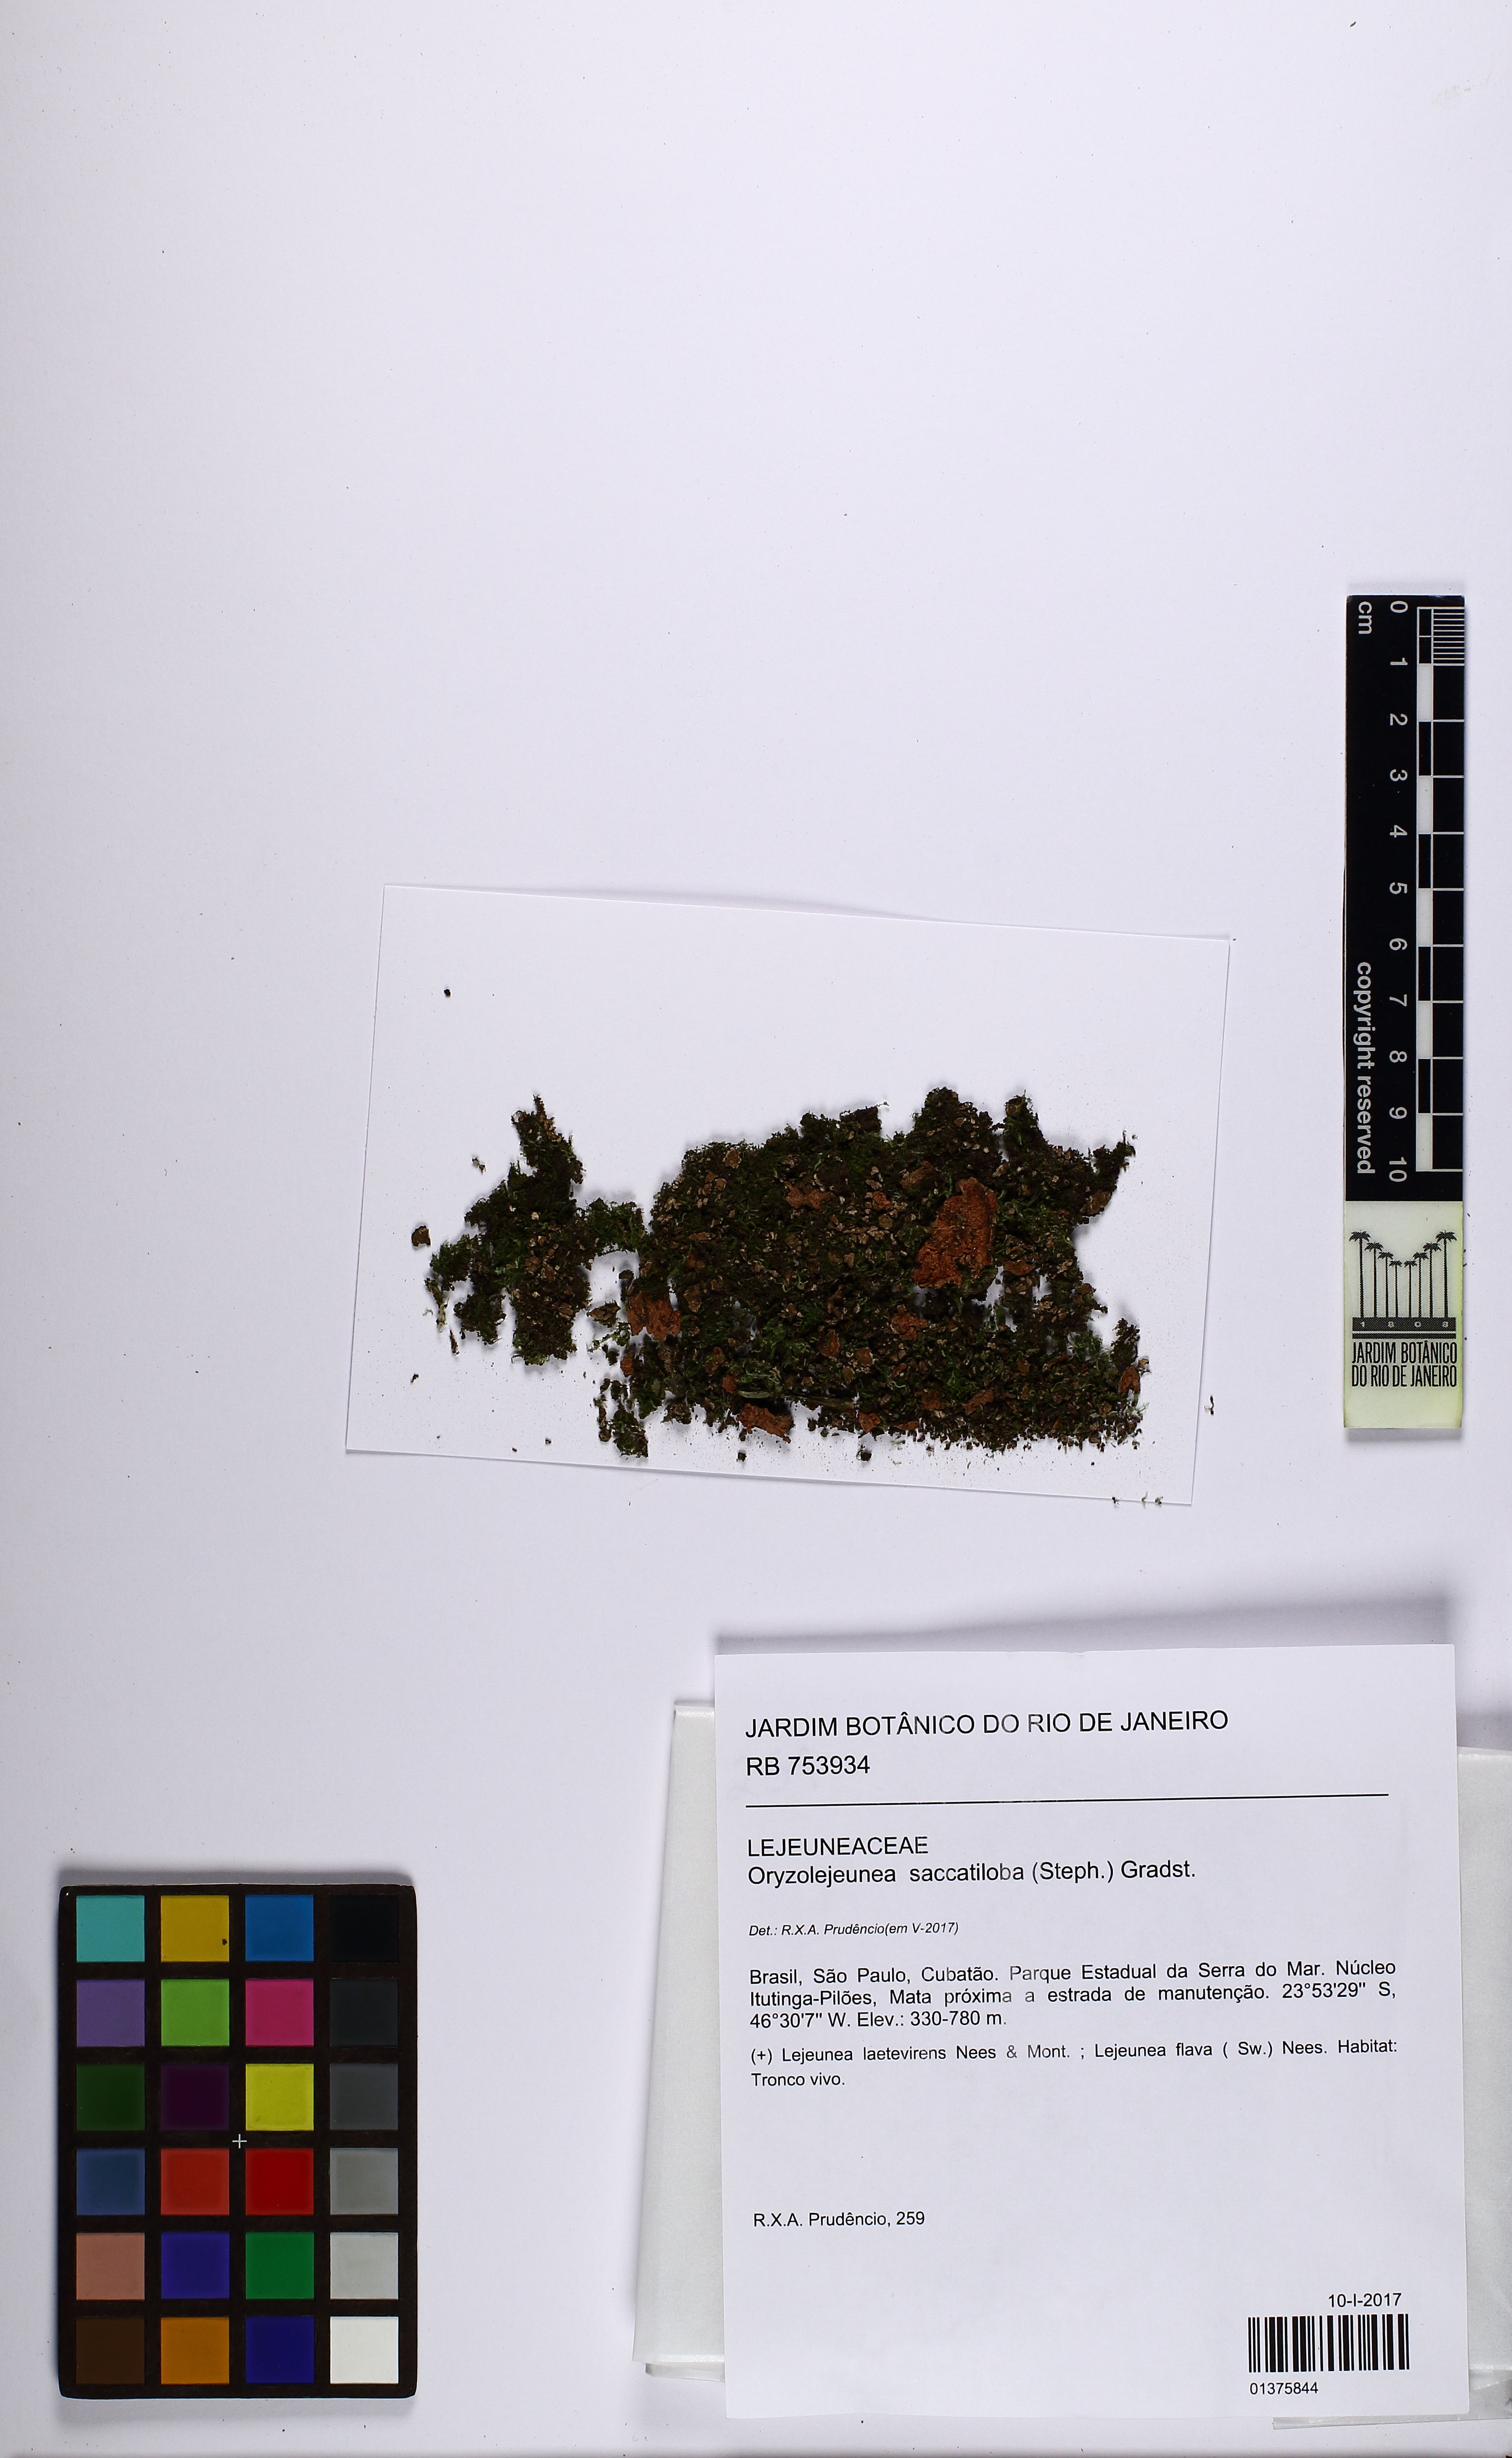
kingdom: Plantae
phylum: Marchantiophyta
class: Jungermanniopsida
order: Porellales
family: Lejeuneaceae
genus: Lejeunea
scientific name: Lejeunea herminieri
